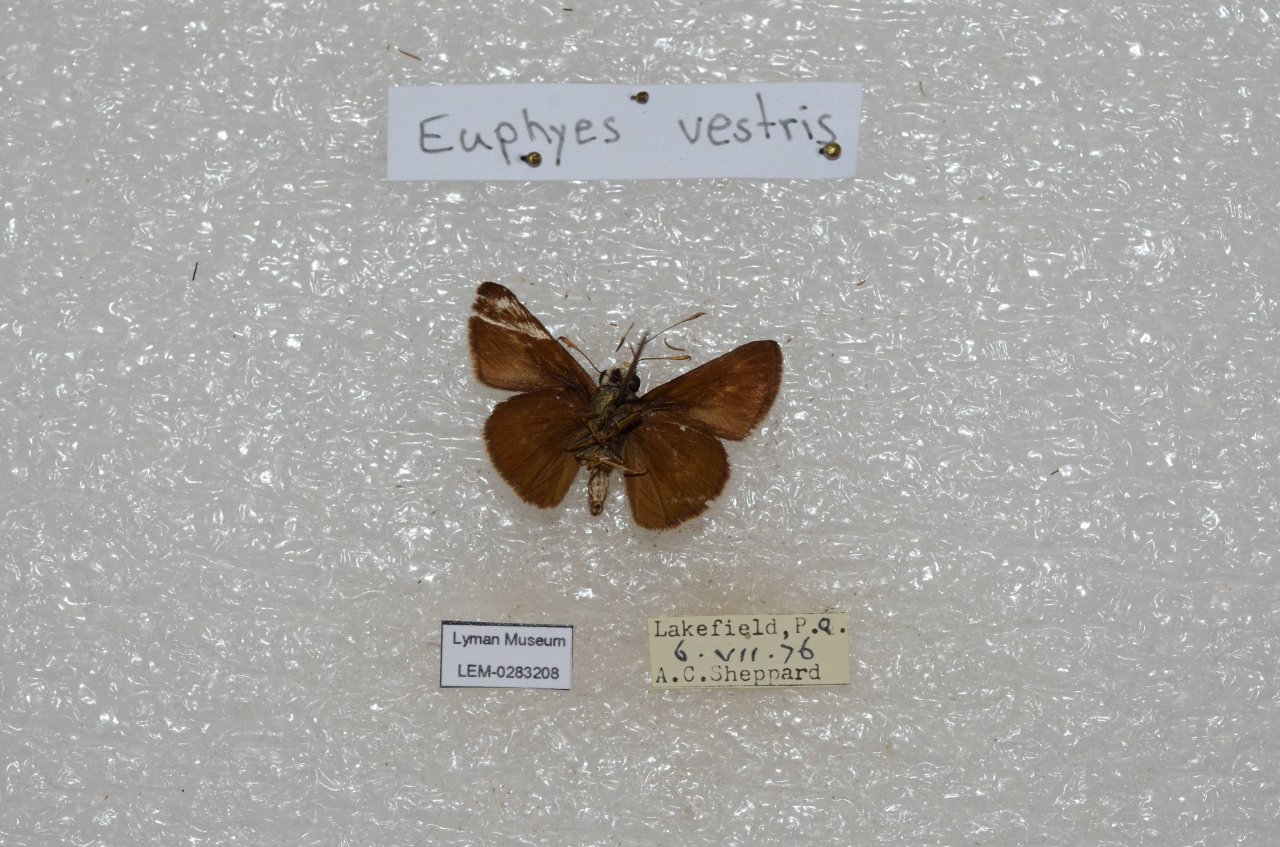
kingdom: Animalia
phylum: Arthropoda
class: Insecta
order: Lepidoptera
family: Hesperiidae
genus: Euphyes
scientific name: Euphyes vestris
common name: Dun Skipper
